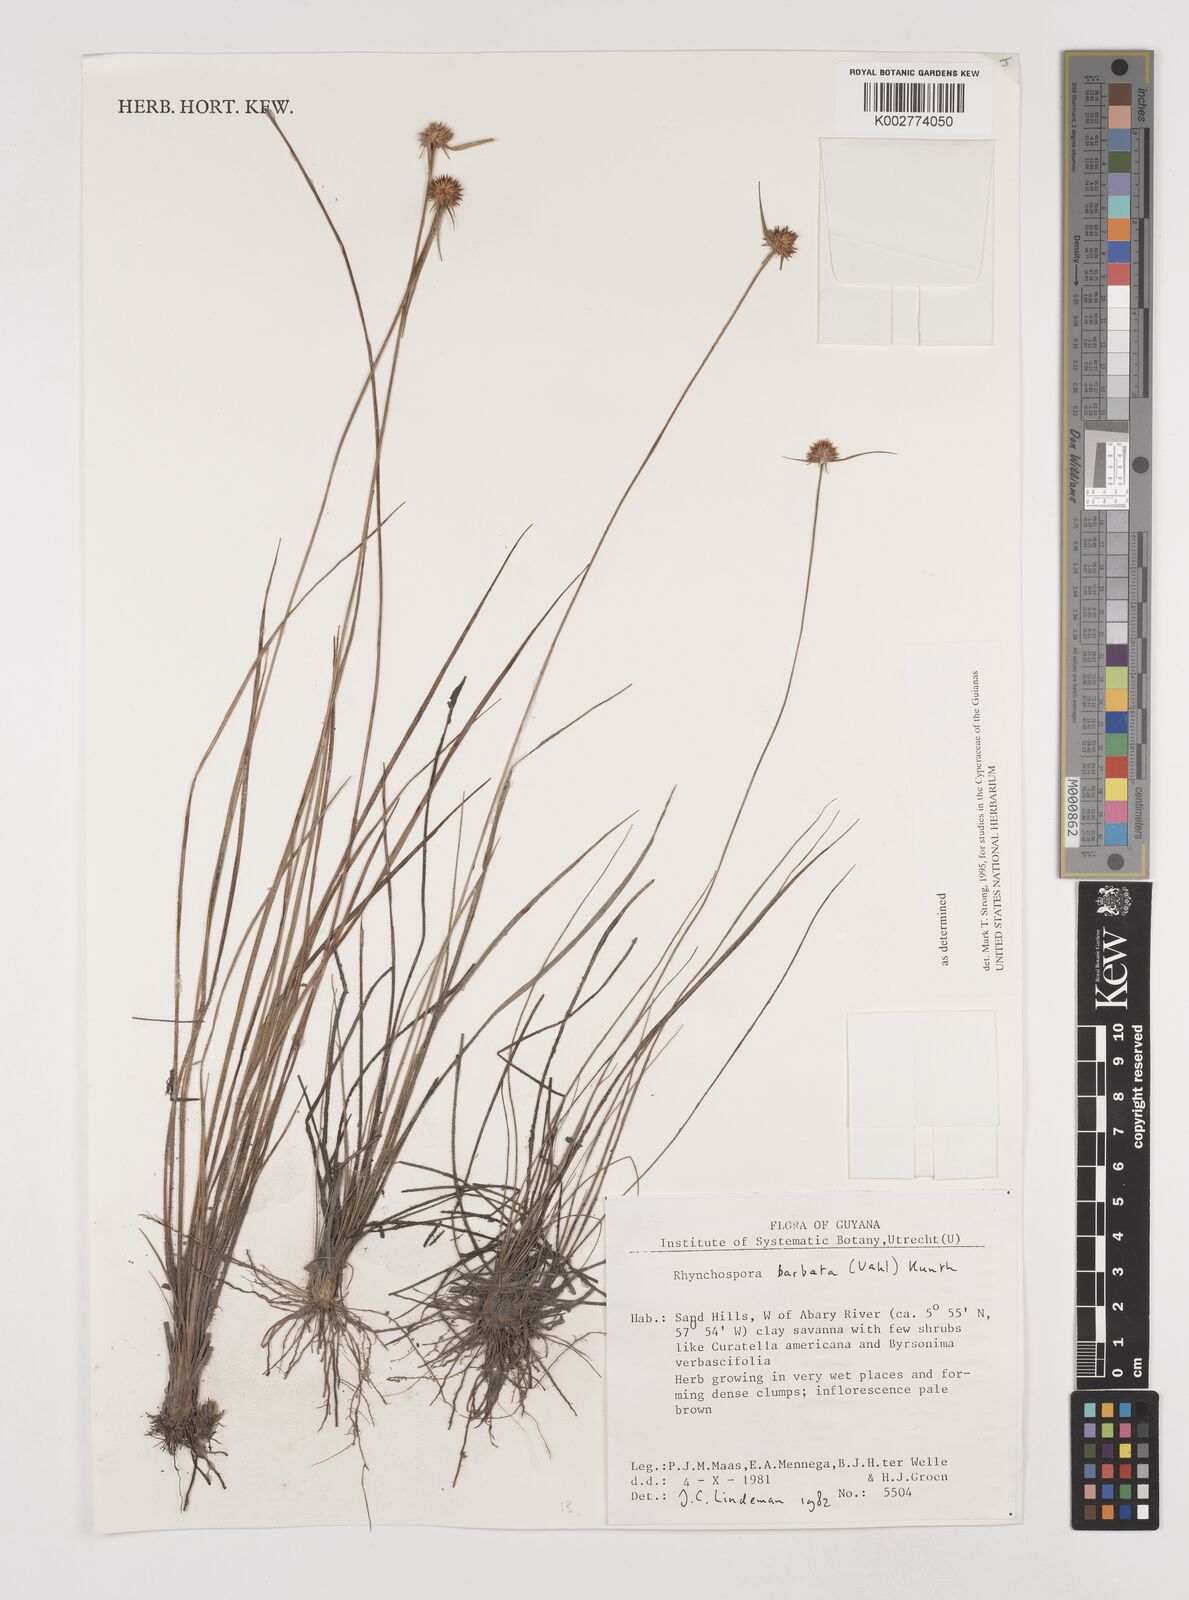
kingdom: Plantae
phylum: Tracheophyta
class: Liliopsida
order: Poales
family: Cyperaceae
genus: Rhynchospora
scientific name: Rhynchospora barbata
